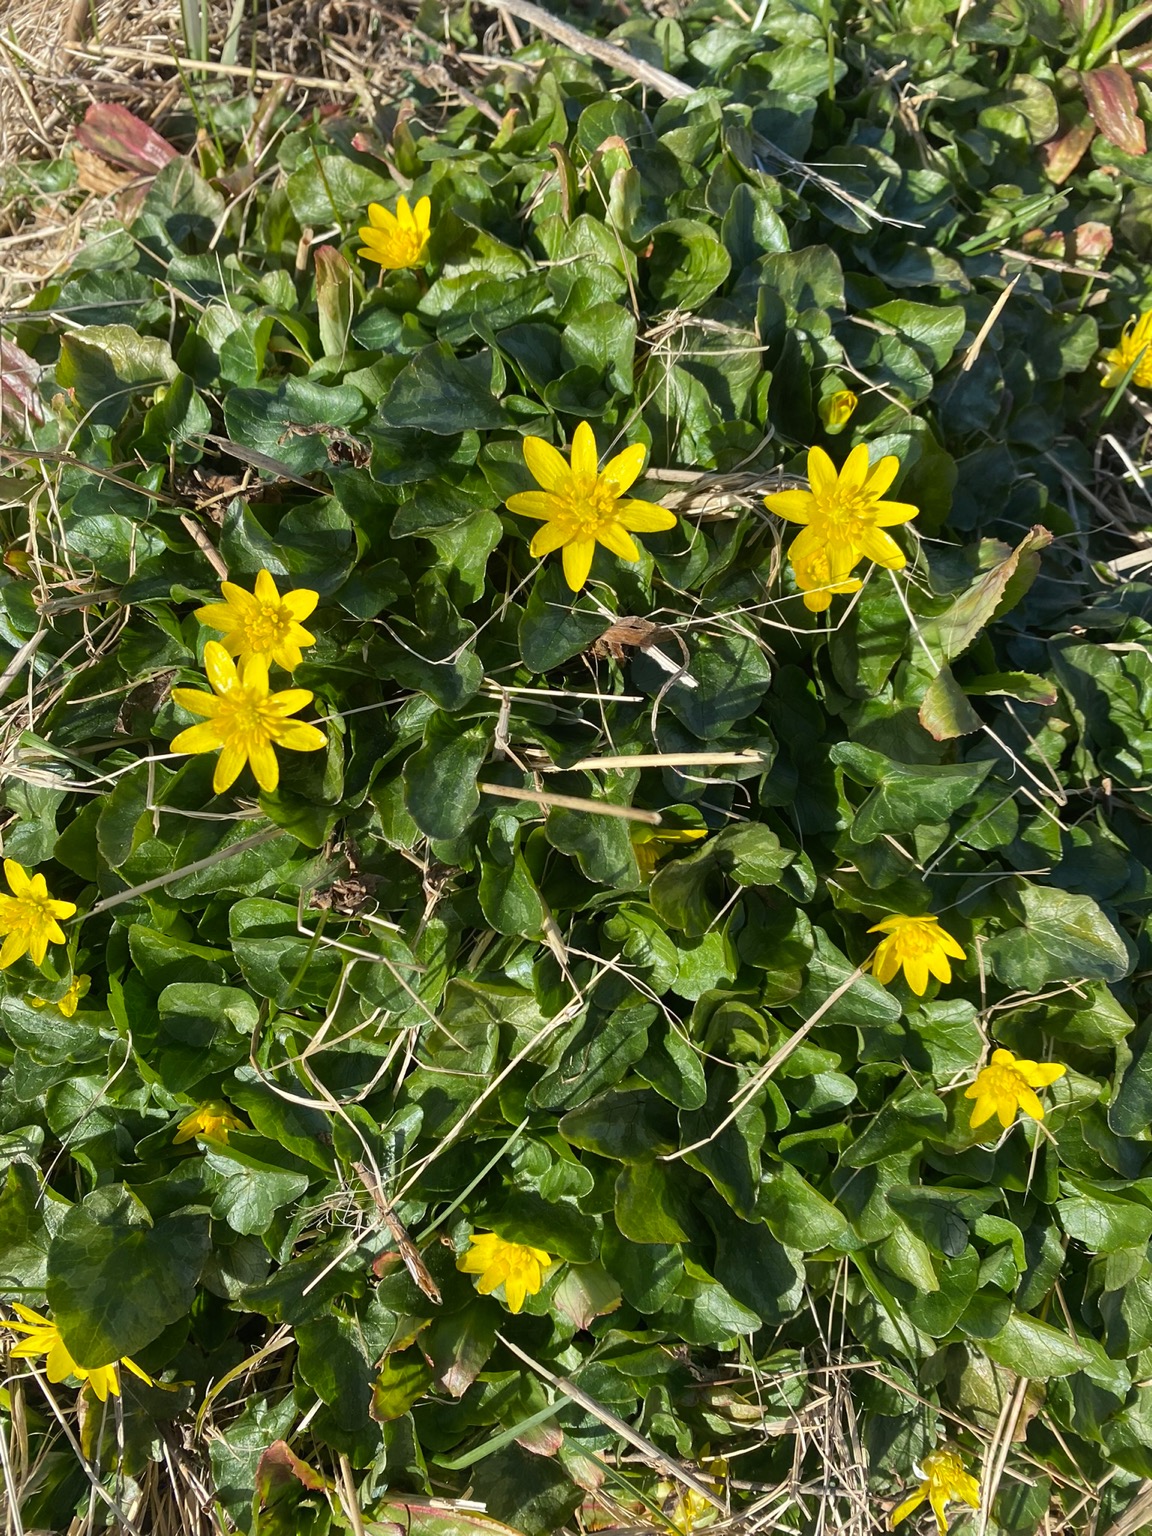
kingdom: Plantae
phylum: Tracheophyta
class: Magnoliopsida
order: Ranunculales
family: Ranunculaceae
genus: Ficaria
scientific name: Ficaria verna
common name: Vorterod
